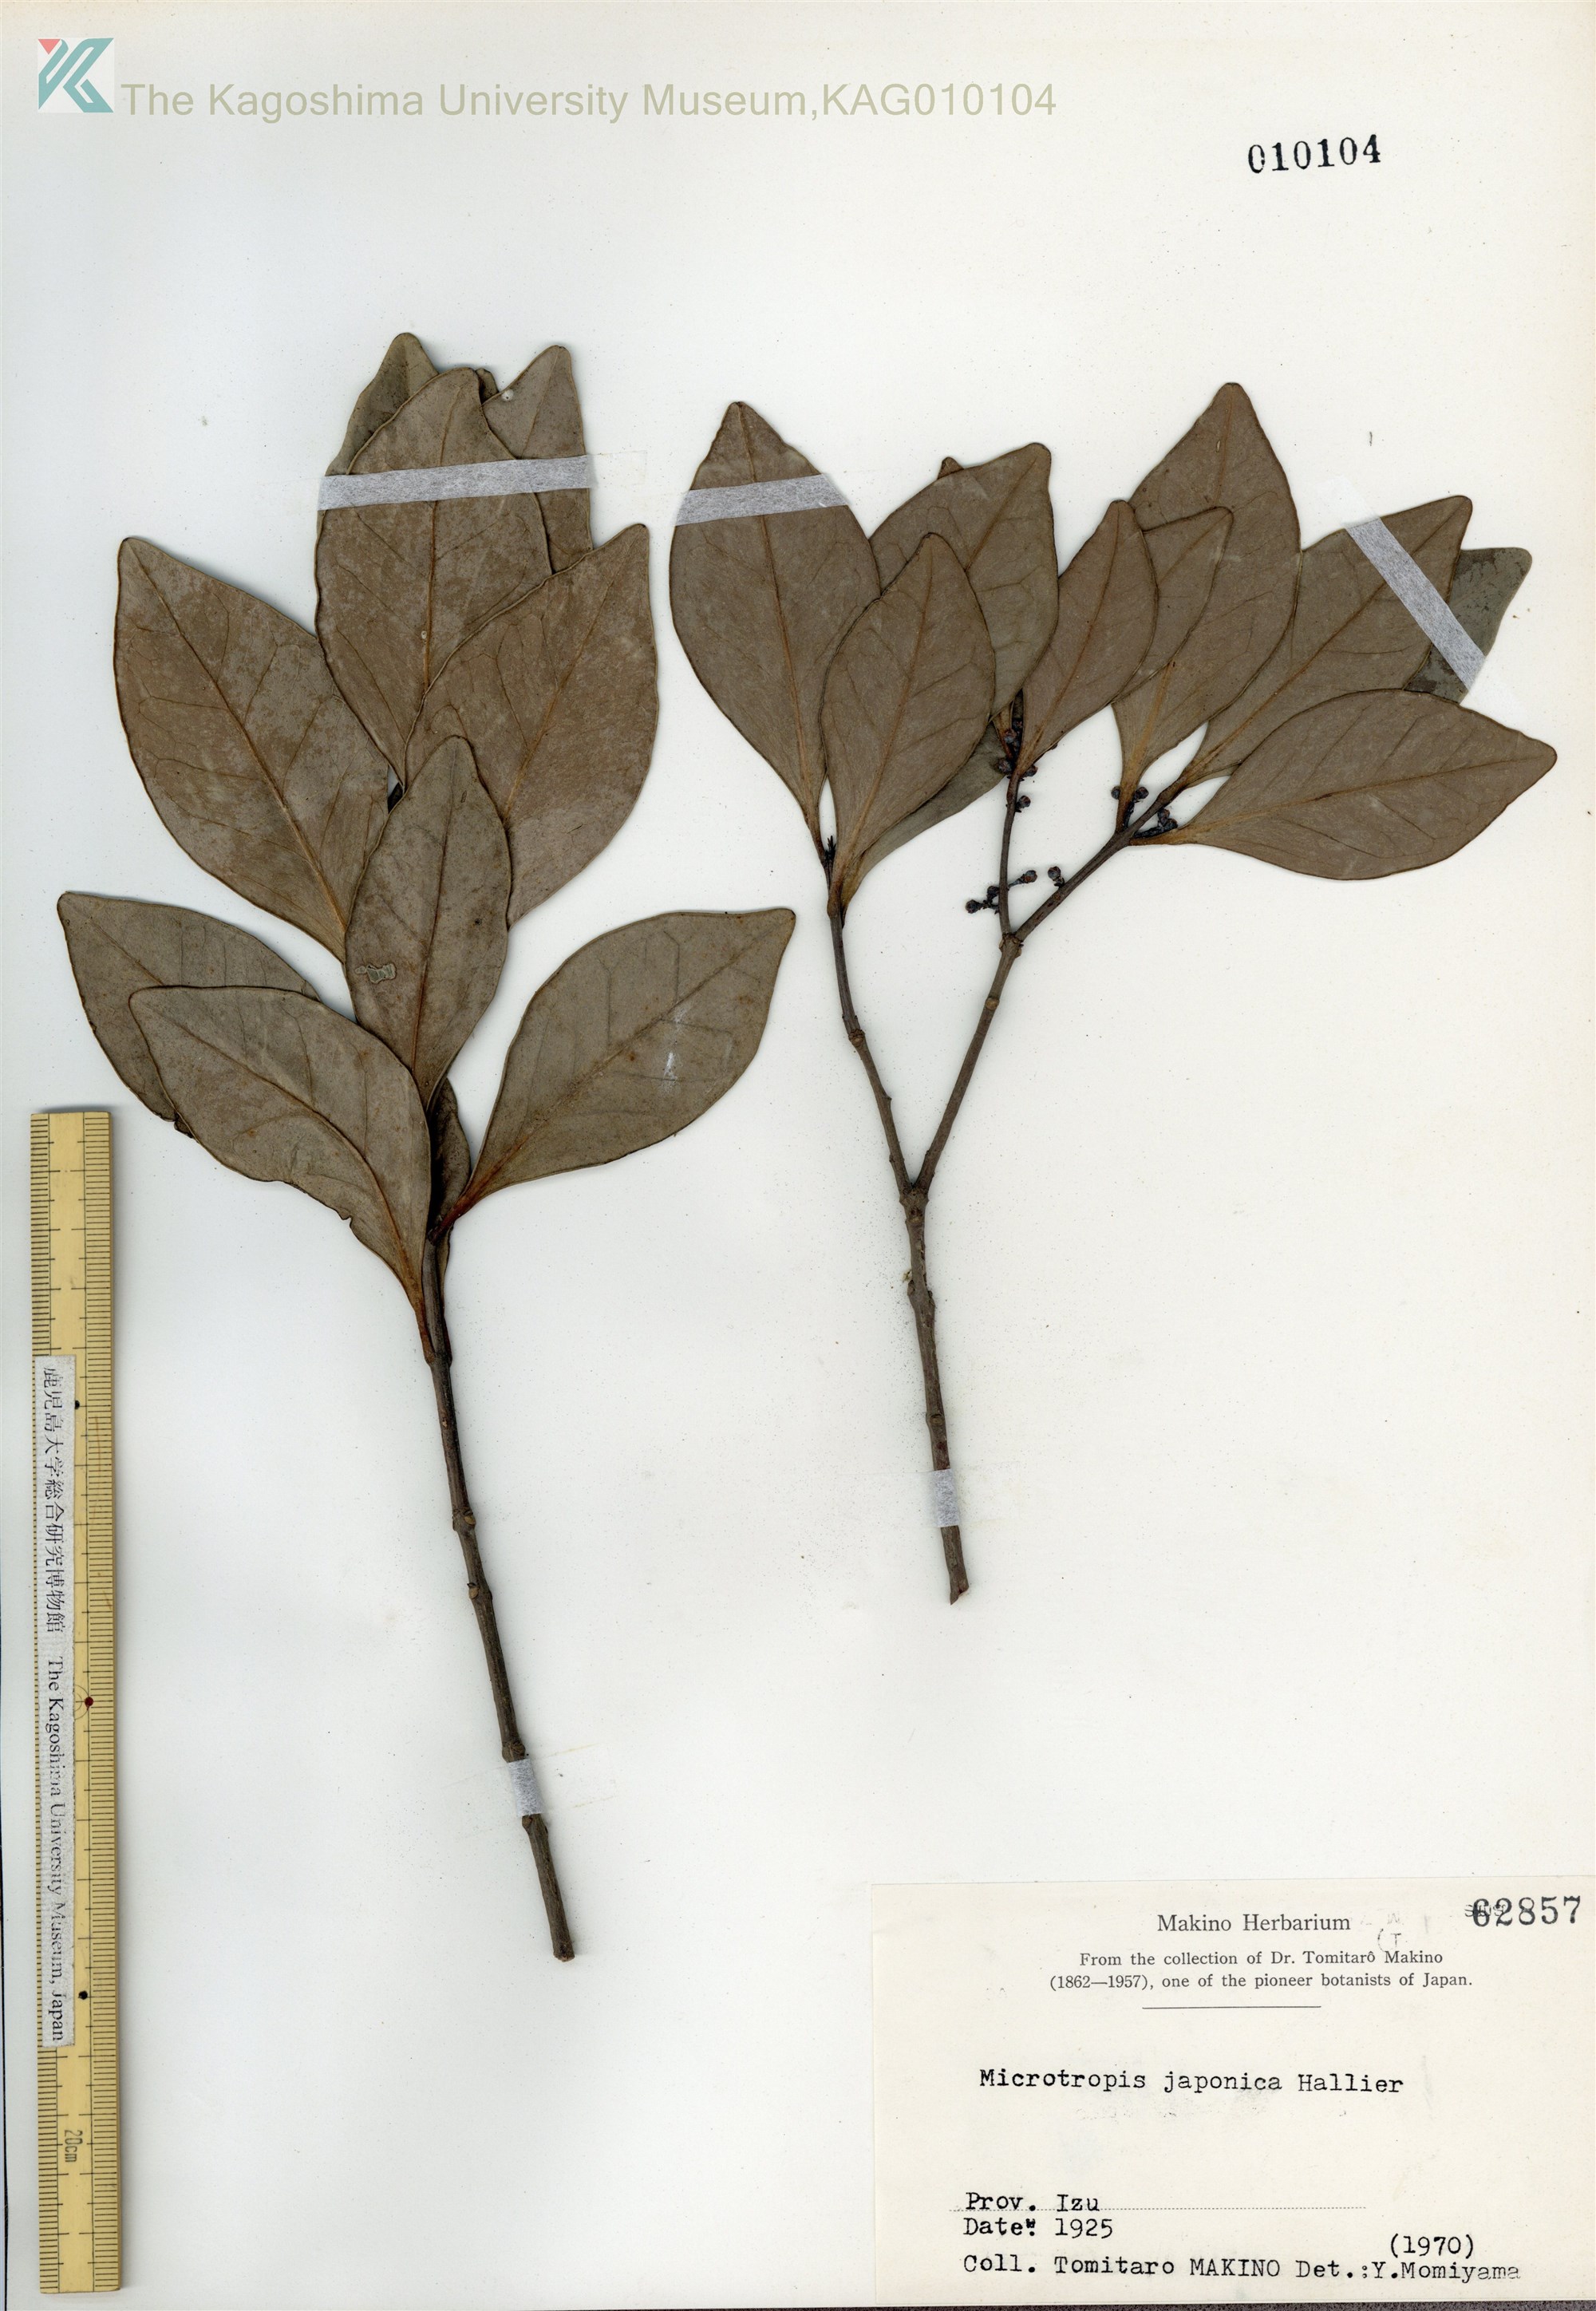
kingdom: Plantae
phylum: Tracheophyta
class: Magnoliopsida
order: Celastrales
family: Celastraceae
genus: Microtropis
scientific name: Microtropis japonica
